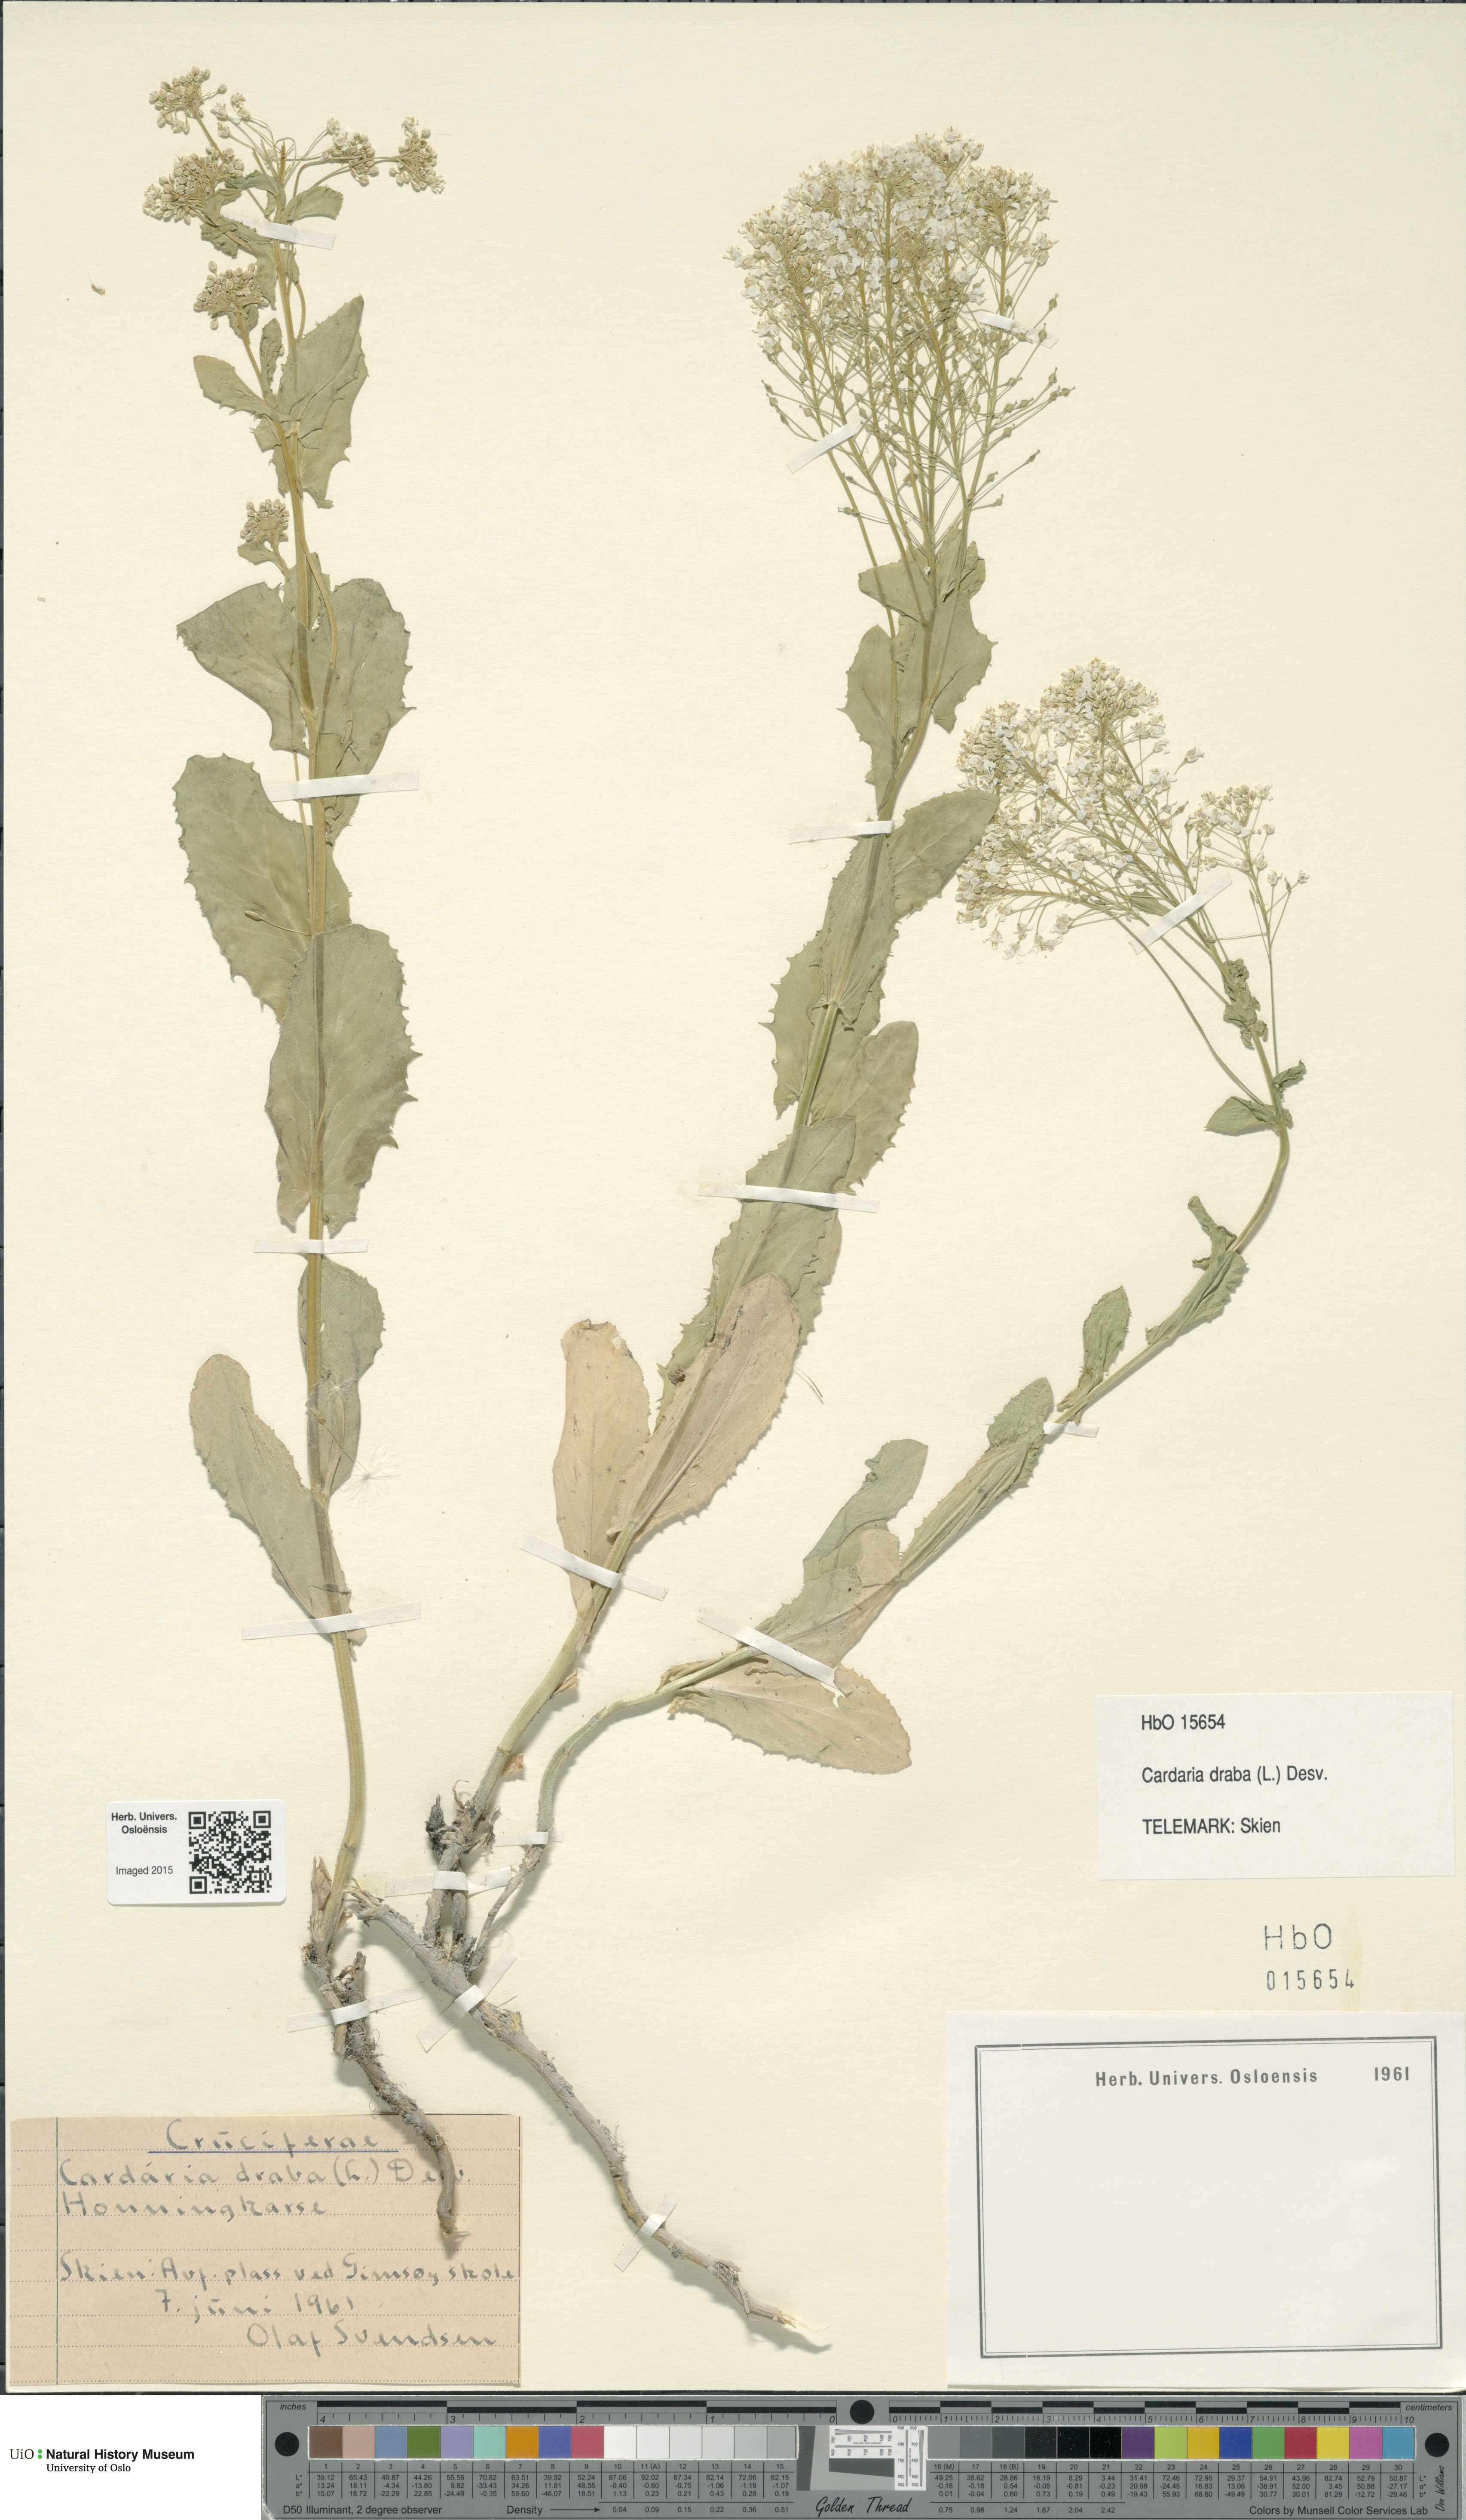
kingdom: Plantae
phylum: Tracheophyta
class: Magnoliopsida
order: Brassicales
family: Brassicaceae
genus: Lepidium
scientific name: Lepidium draba
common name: Hoary cress
